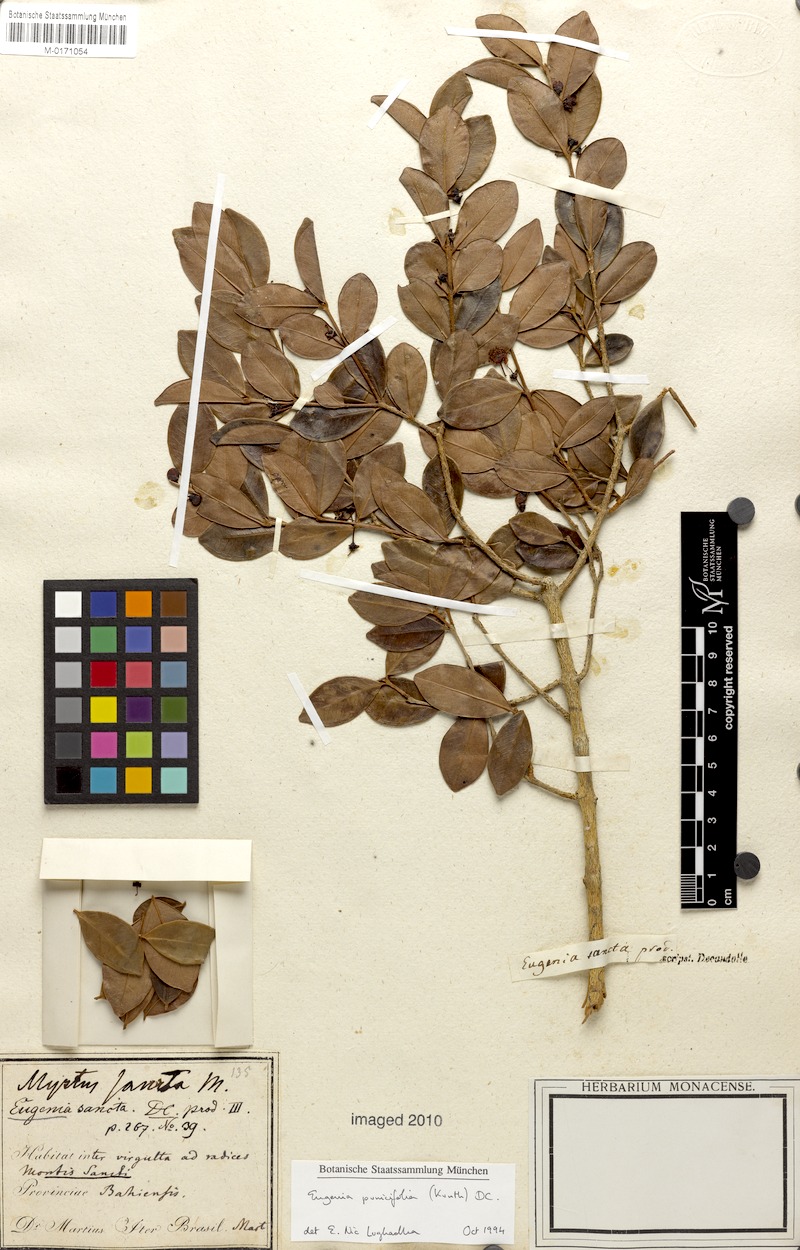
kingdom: Plantae
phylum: Tracheophyta
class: Magnoliopsida
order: Myrtales
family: Myrtaceae
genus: Eugenia
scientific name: Eugenia punicifolia
